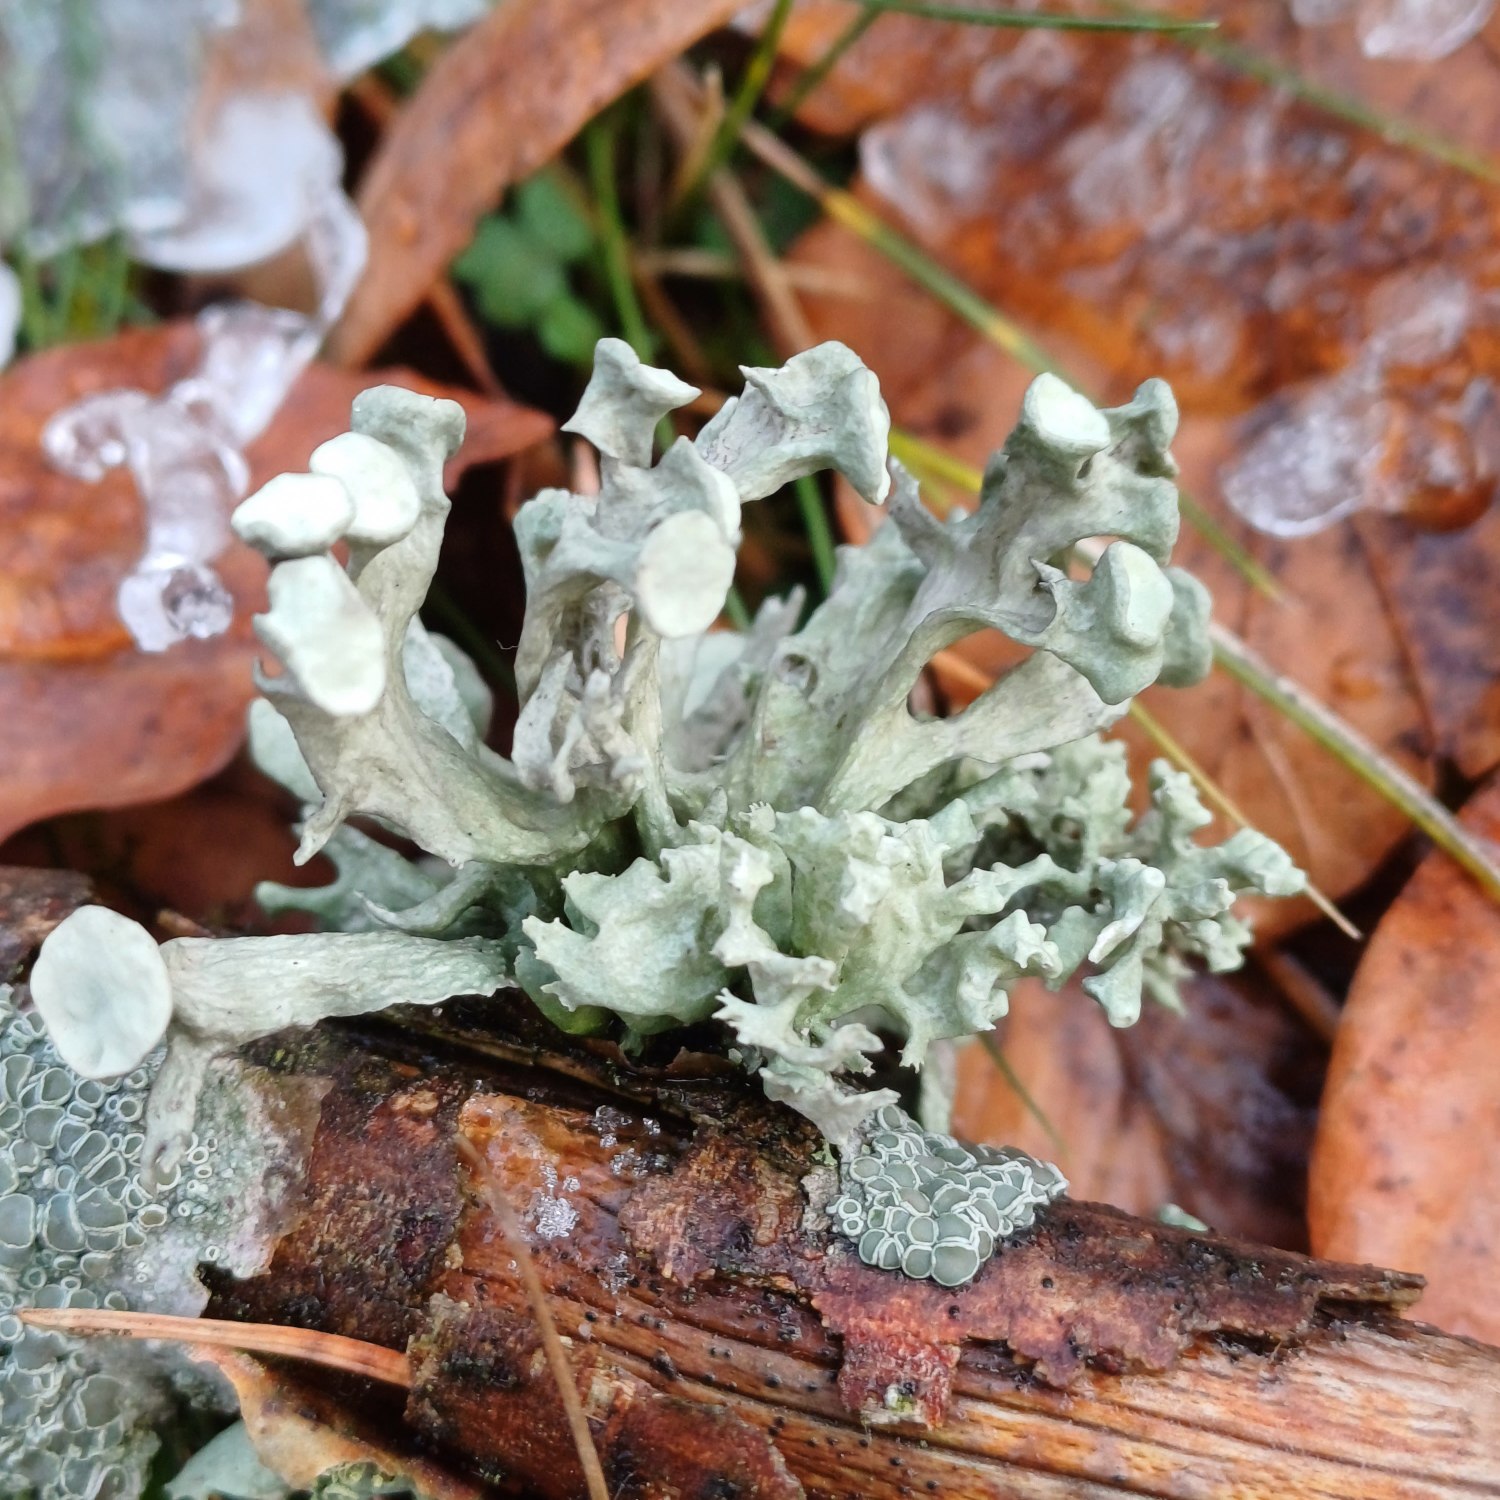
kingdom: Fungi
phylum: Ascomycota
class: Lecanoromycetes
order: Lecanorales
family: Ramalinaceae
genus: Ramalina
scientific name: Ramalina fastigiata
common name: Tue-grenlav
